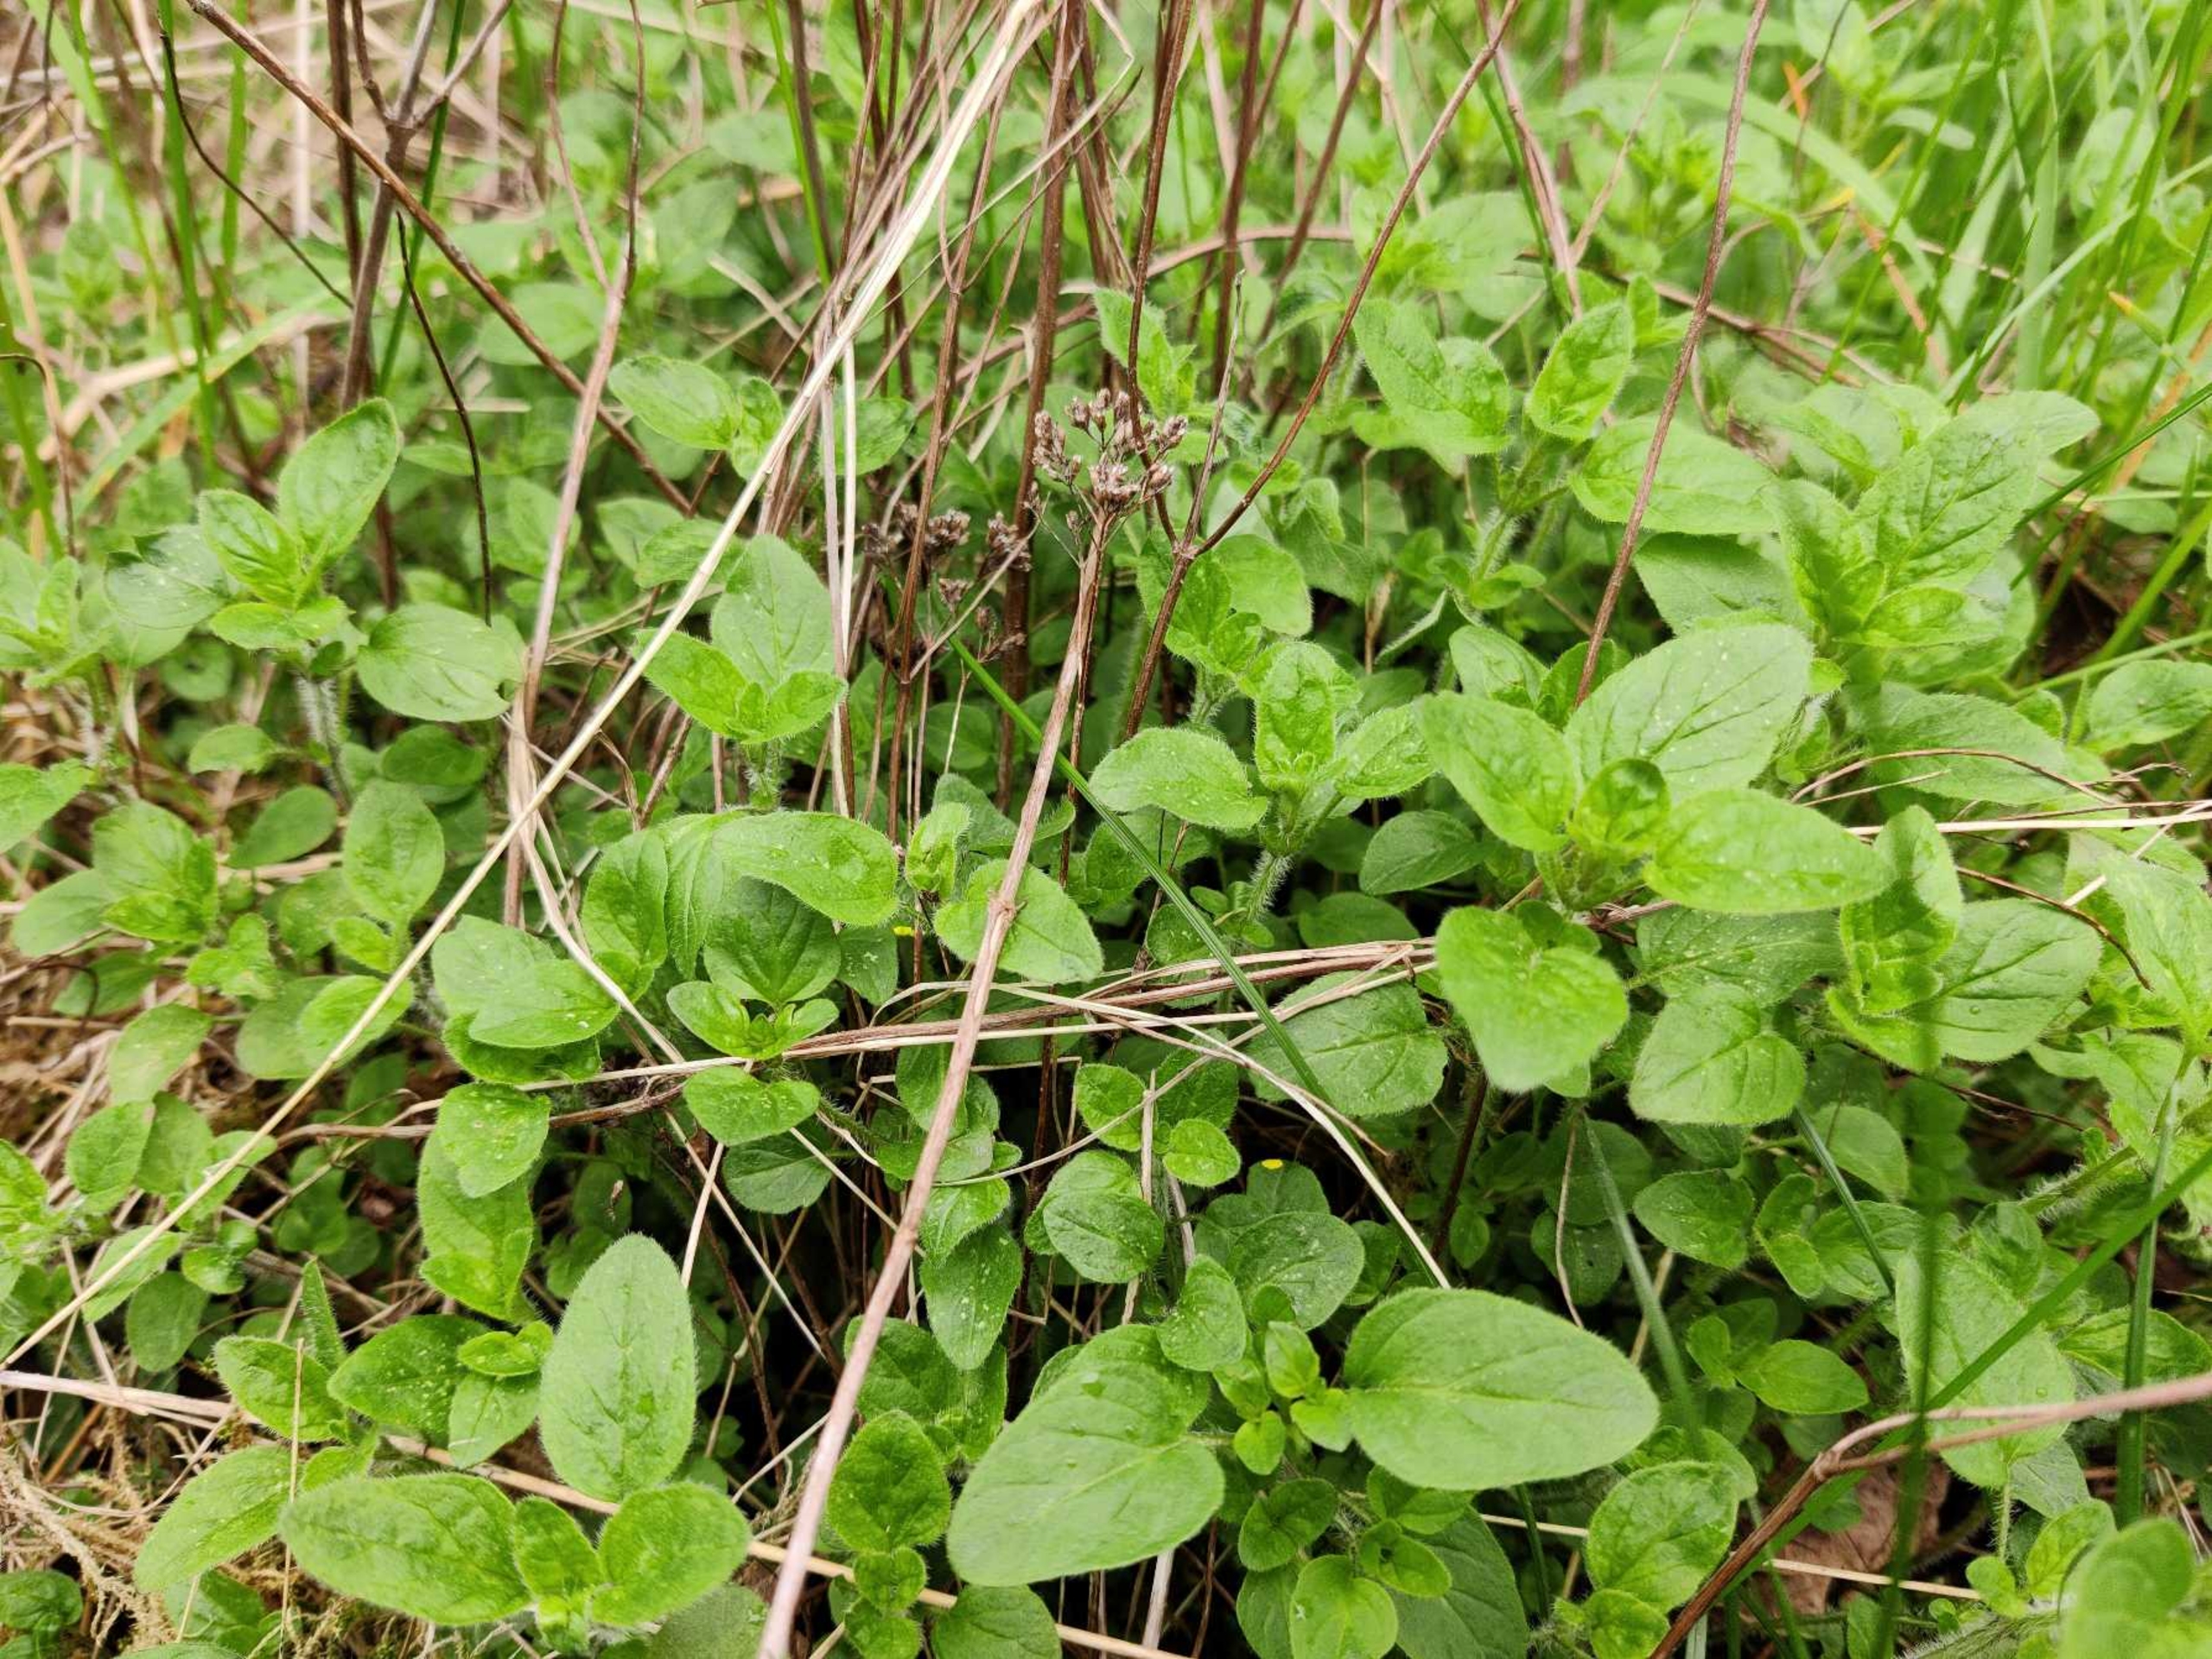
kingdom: Plantae
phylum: Tracheophyta
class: Magnoliopsida
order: Lamiales
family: Lamiaceae
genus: Origanum
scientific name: Origanum vulgare
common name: Merian
